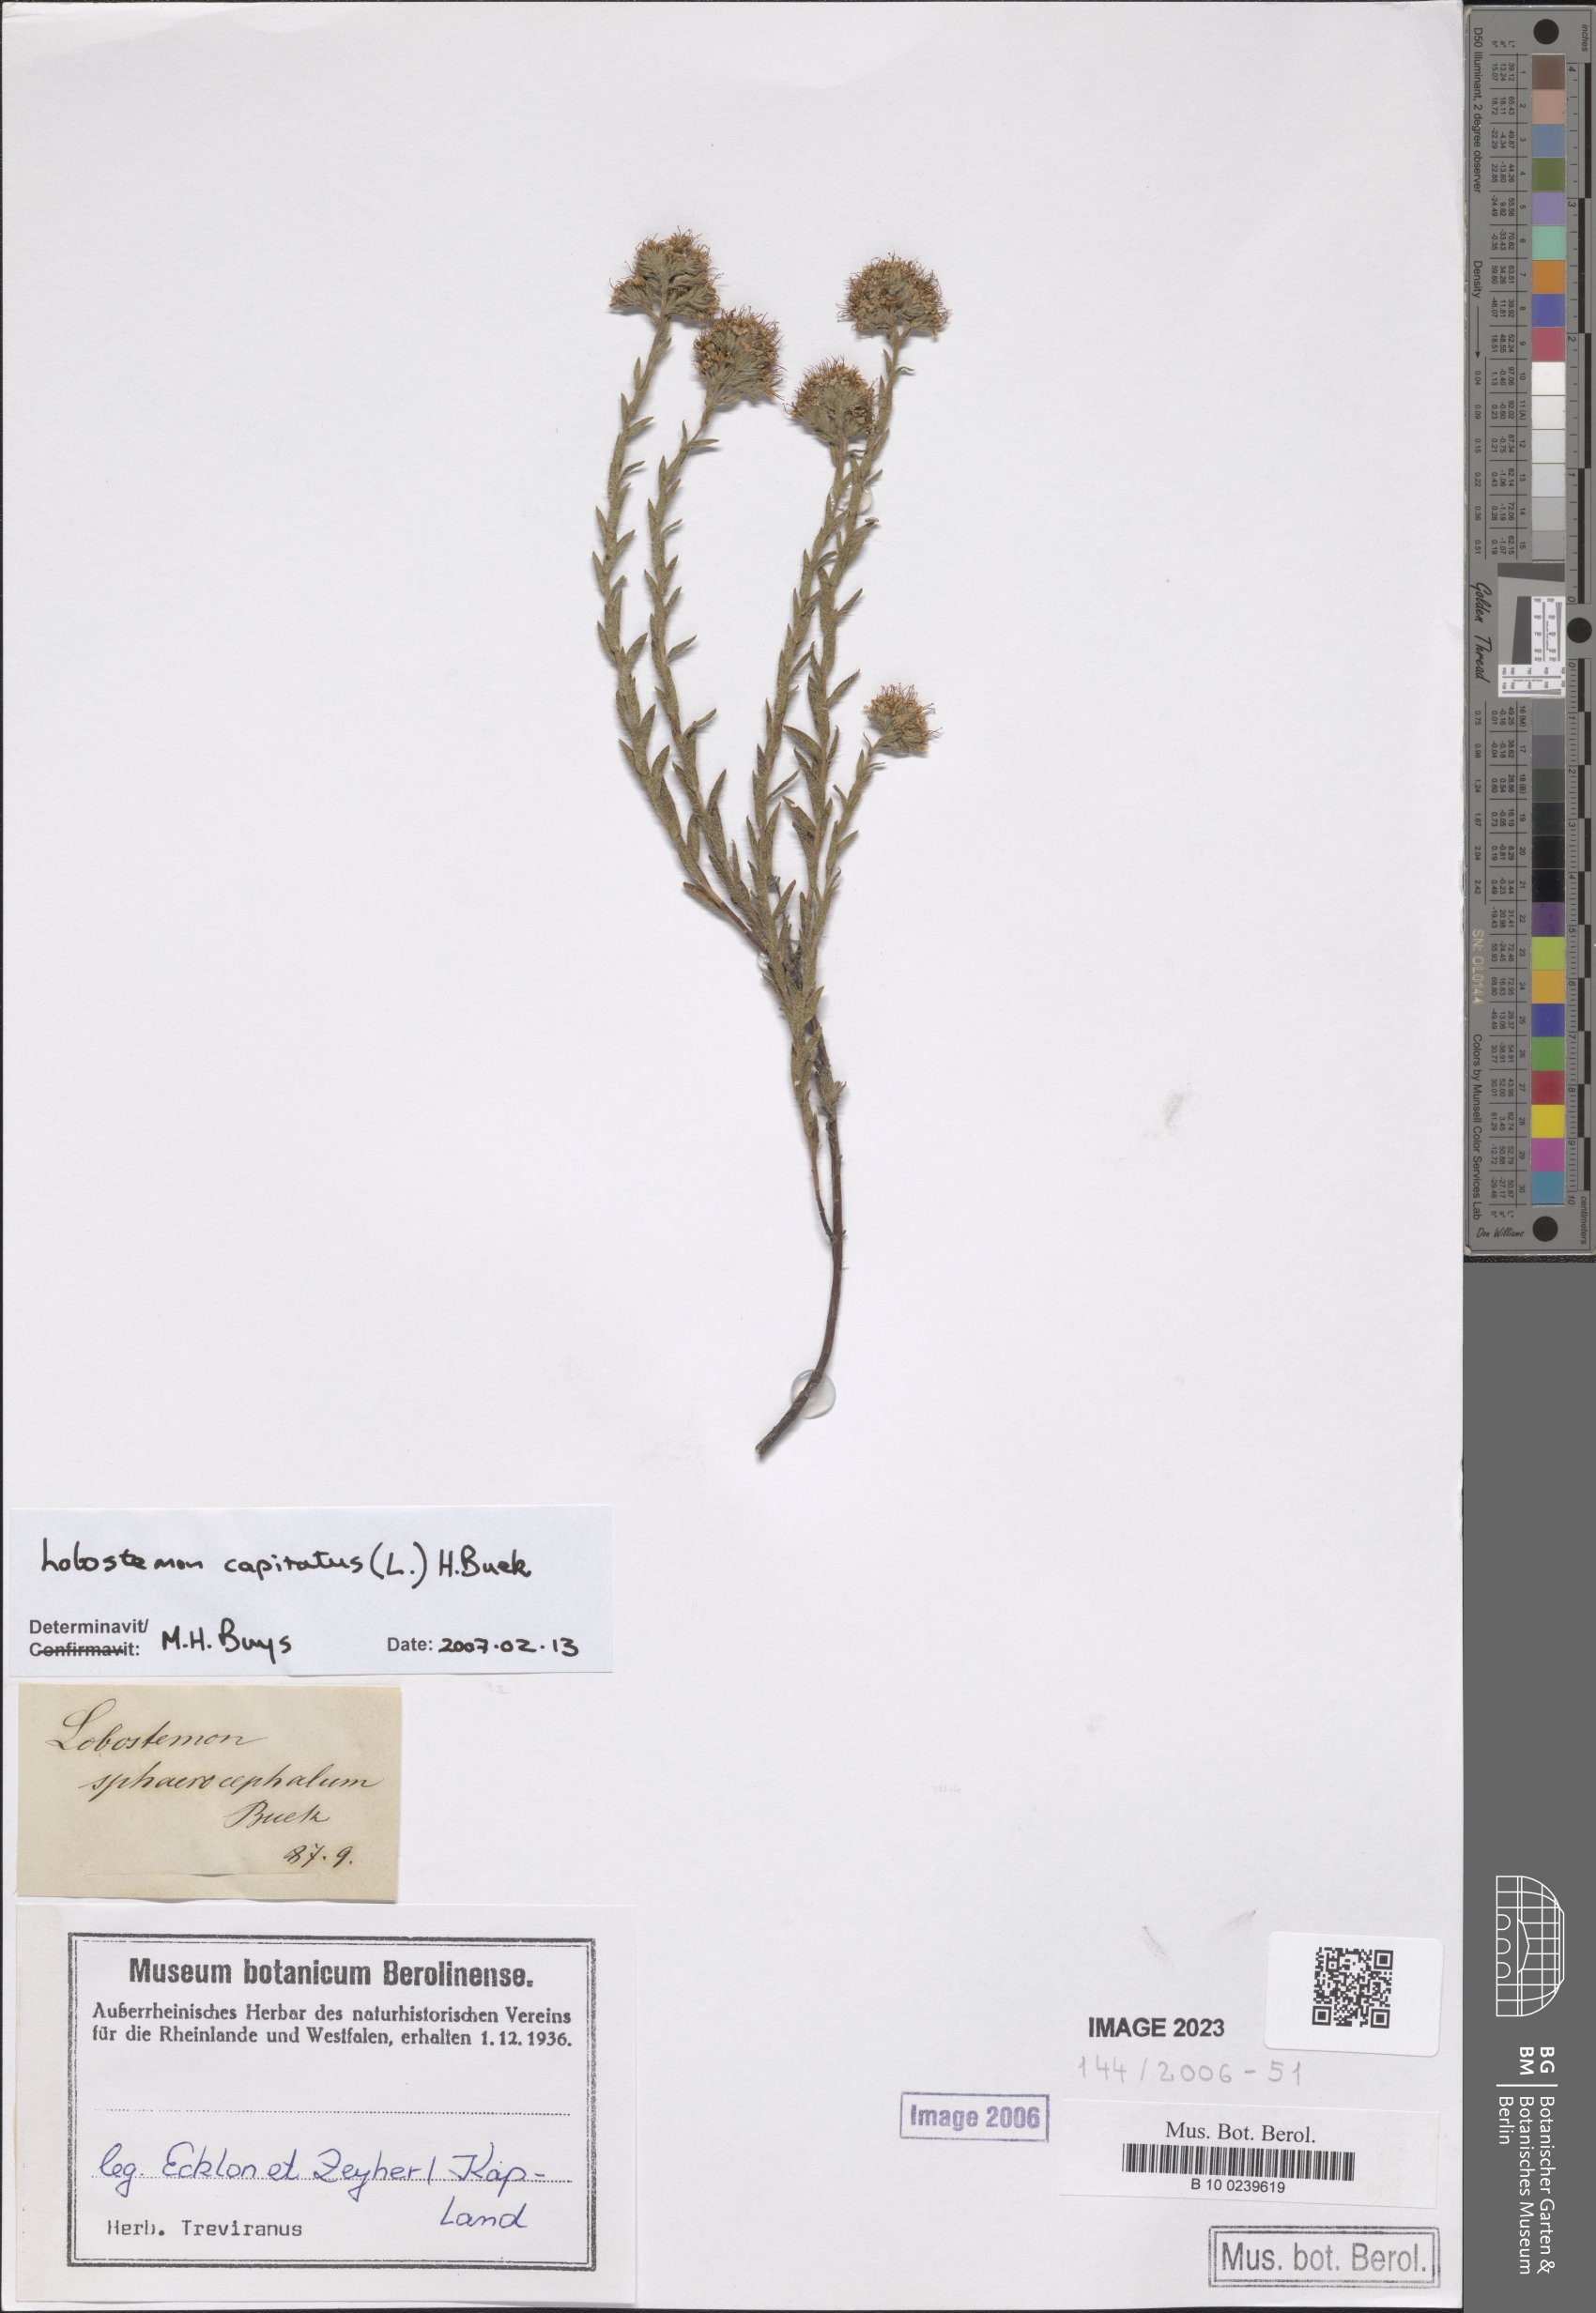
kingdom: Plantae
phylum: Tracheophyta
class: Magnoliopsida
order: Boraginales
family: Boraginaceae
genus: Lobostemon
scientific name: Lobostemon capitatus
